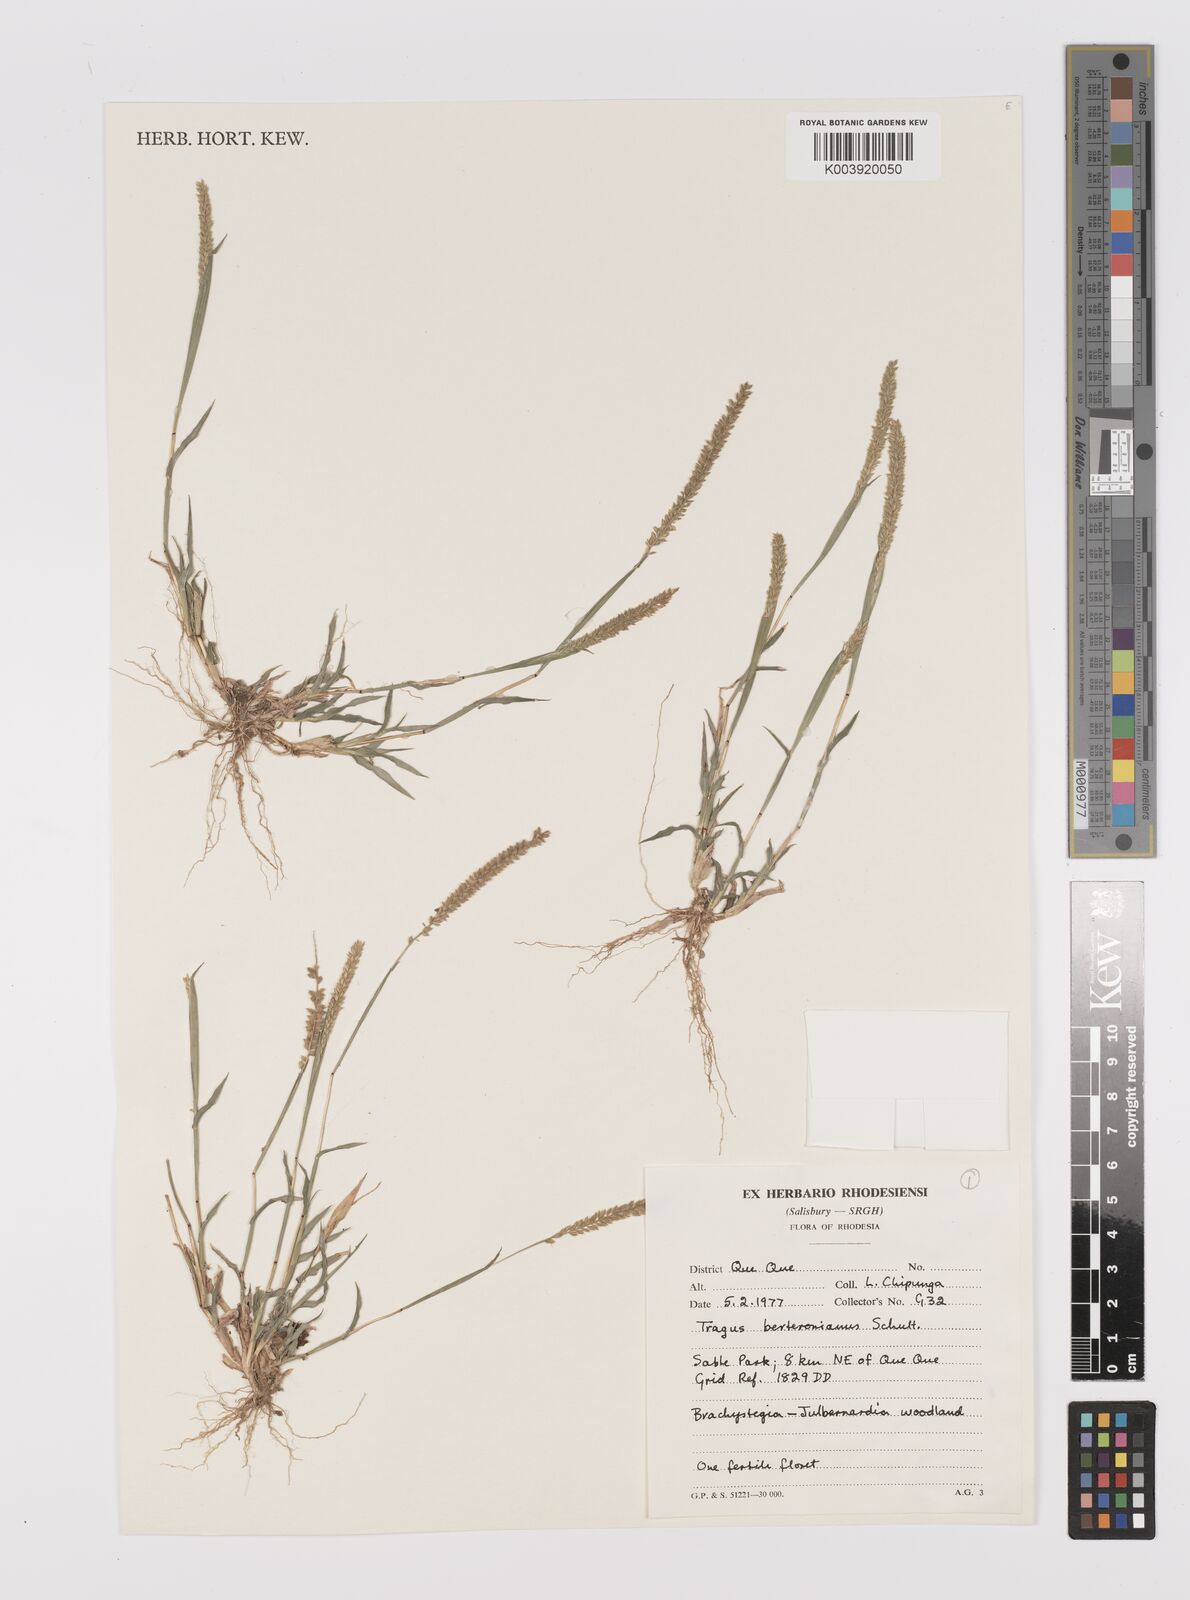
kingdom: Plantae
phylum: Tracheophyta
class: Liliopsida
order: Poales
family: Poaceae
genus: Tragus
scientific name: Tragus berteronianus
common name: African bur-grass
